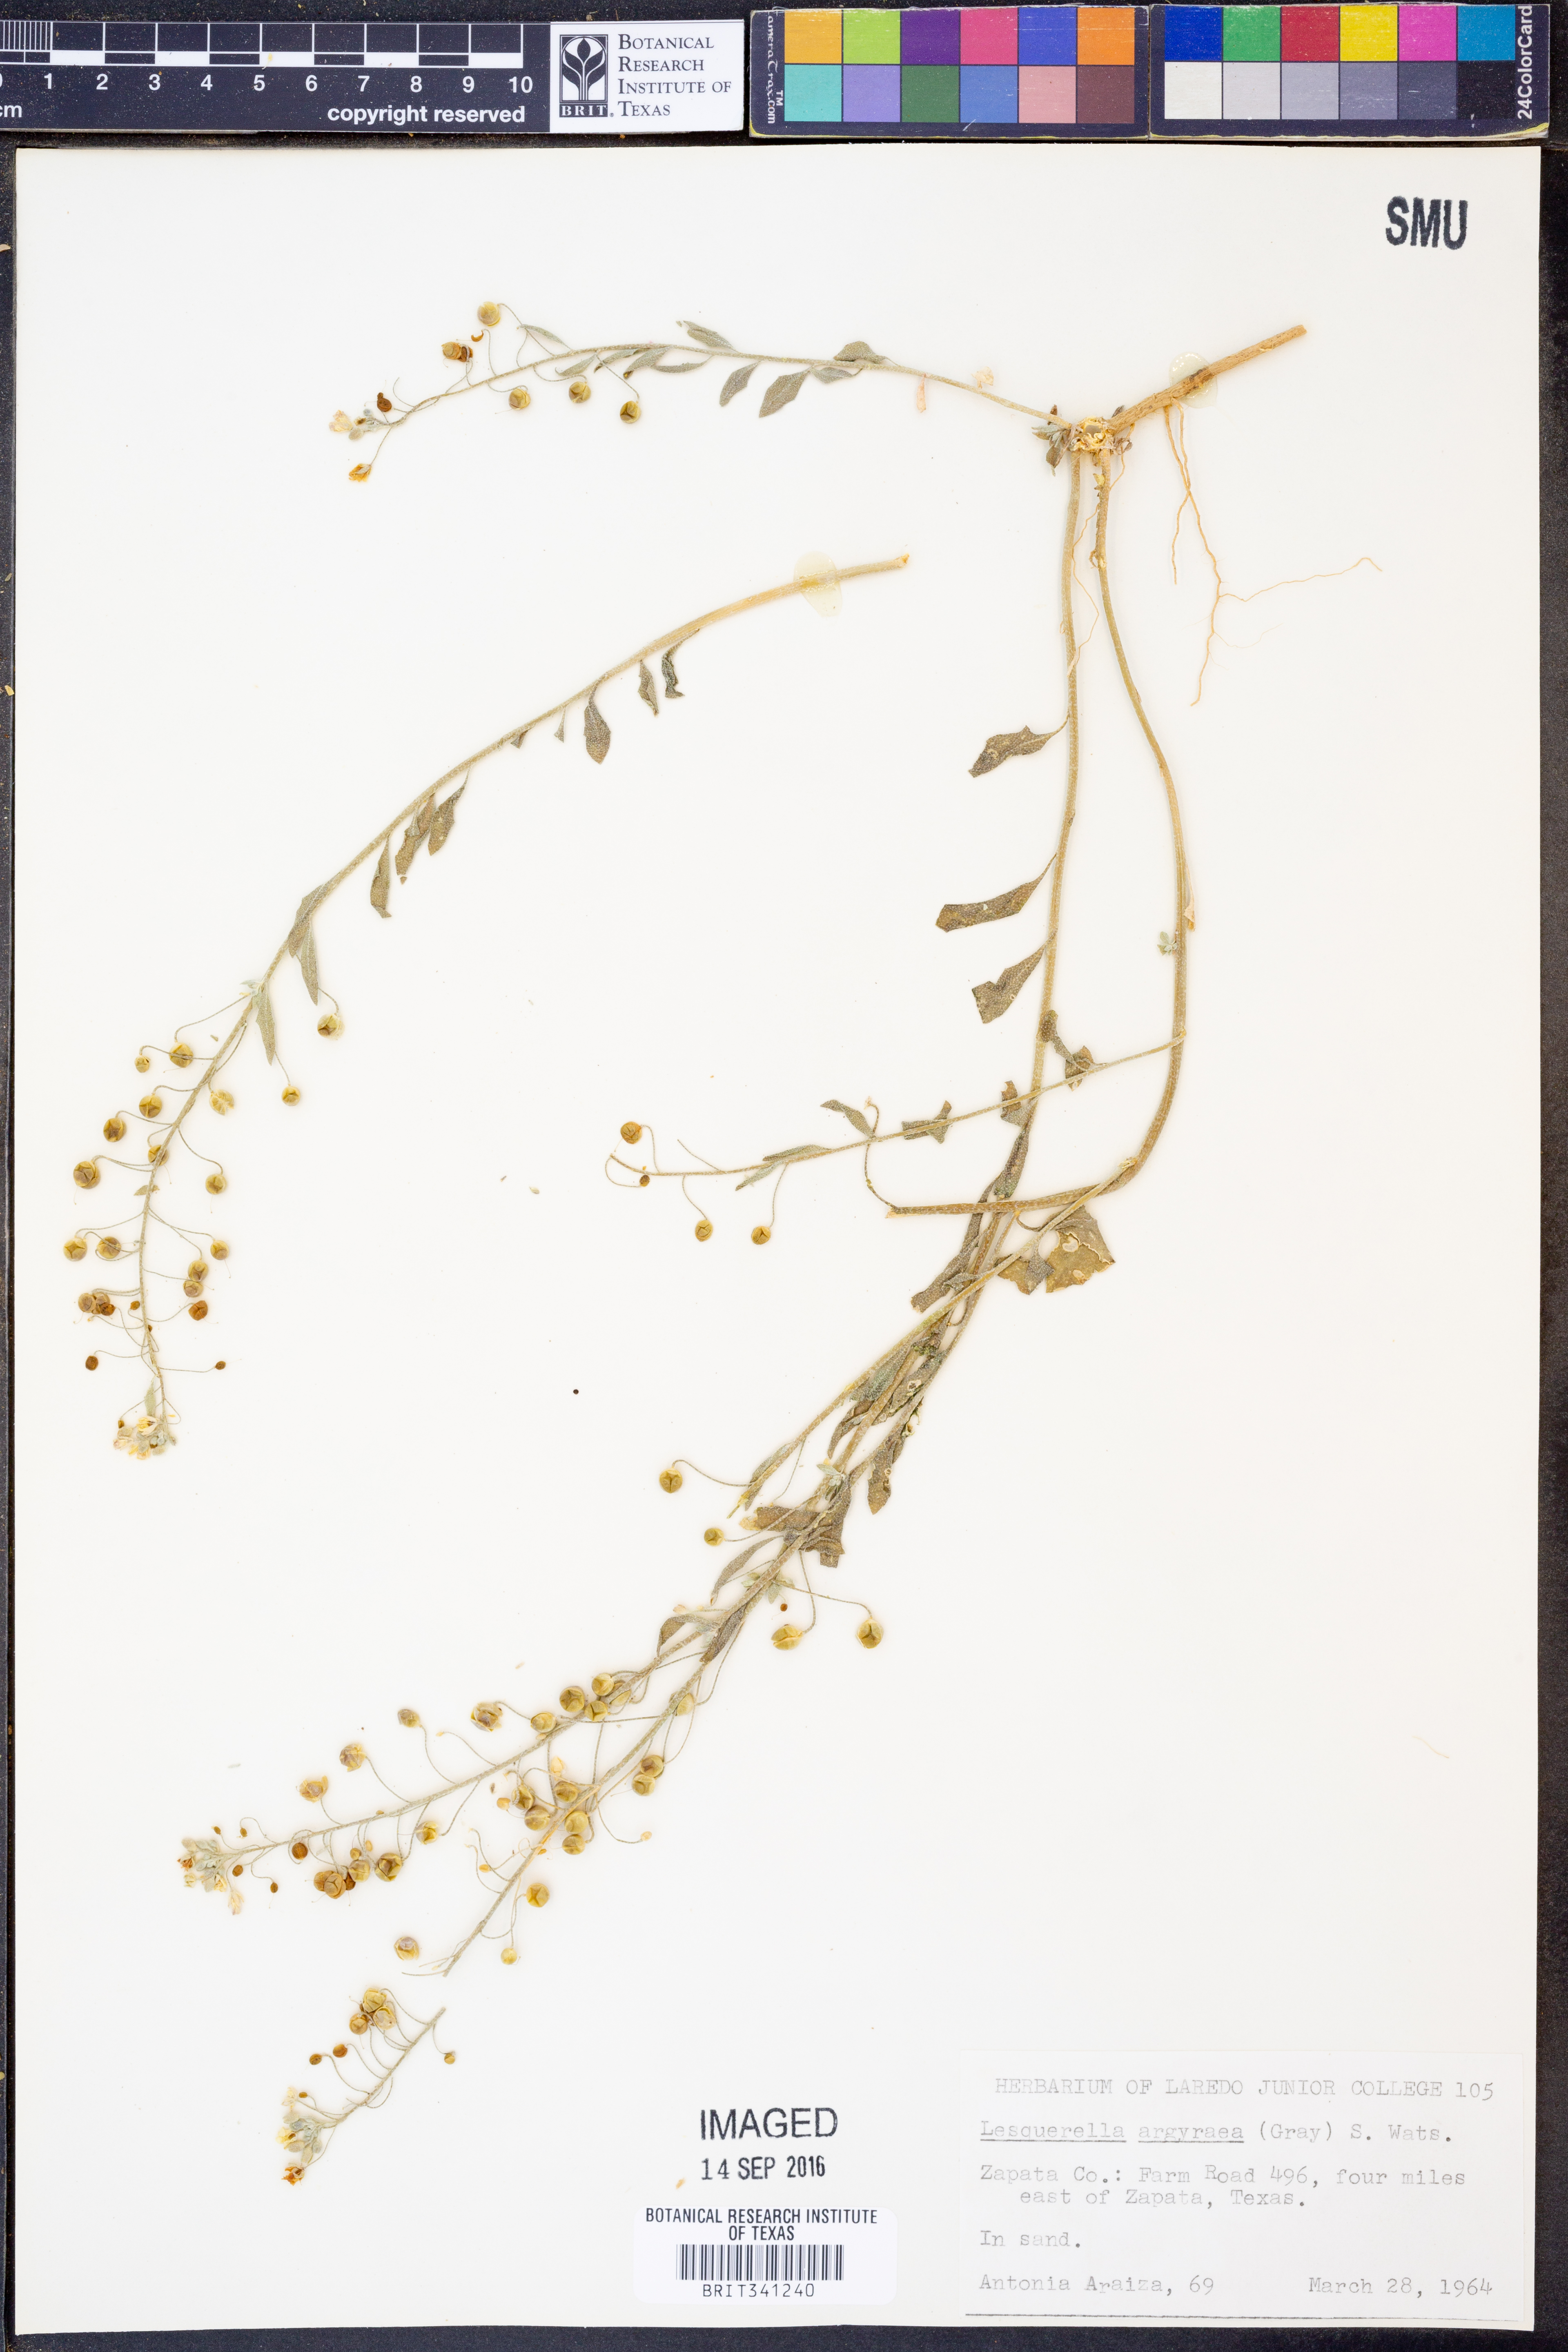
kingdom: Plantae
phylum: Tracheophyta
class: Magnoliopsida
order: Brassicales
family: Brassicaceae
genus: Physaria
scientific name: Physaria argyraea
